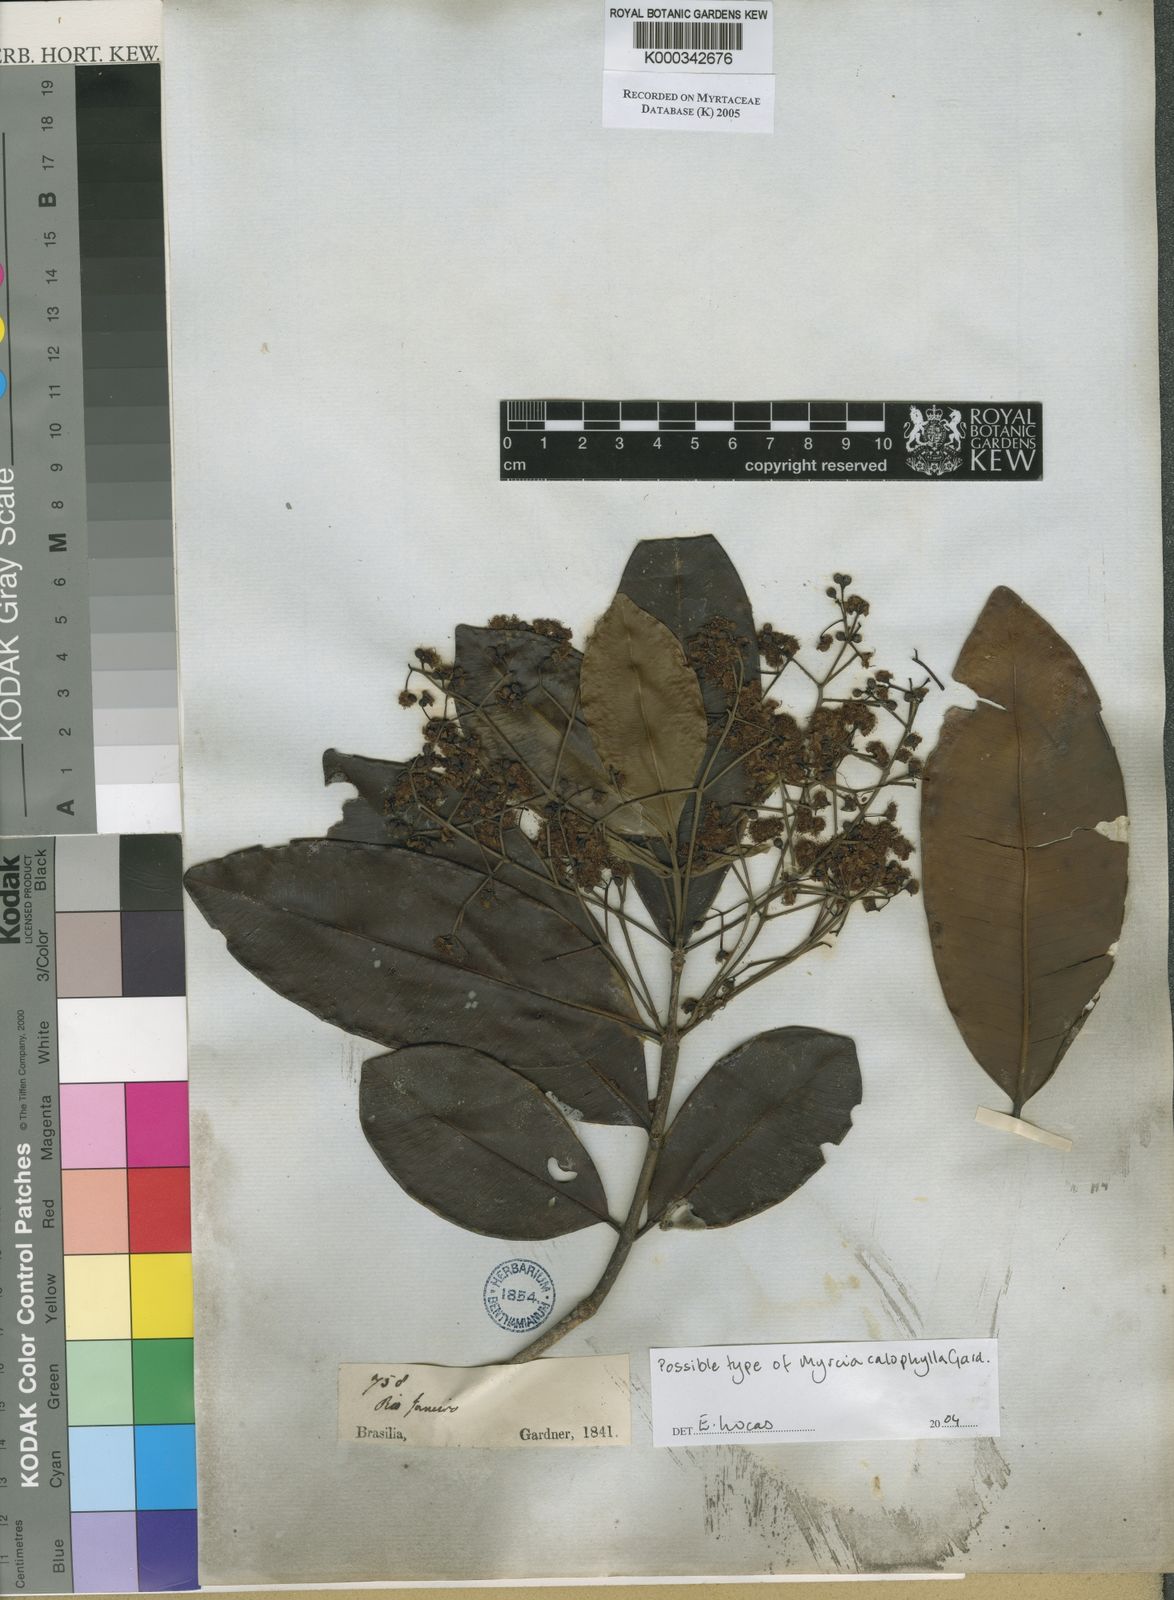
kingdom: Plantae
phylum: Tracheophyta
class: Magnoliopsida
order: Myrtales
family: Myrtaceae
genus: Myrcia
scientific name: Myrcia eugenioides
